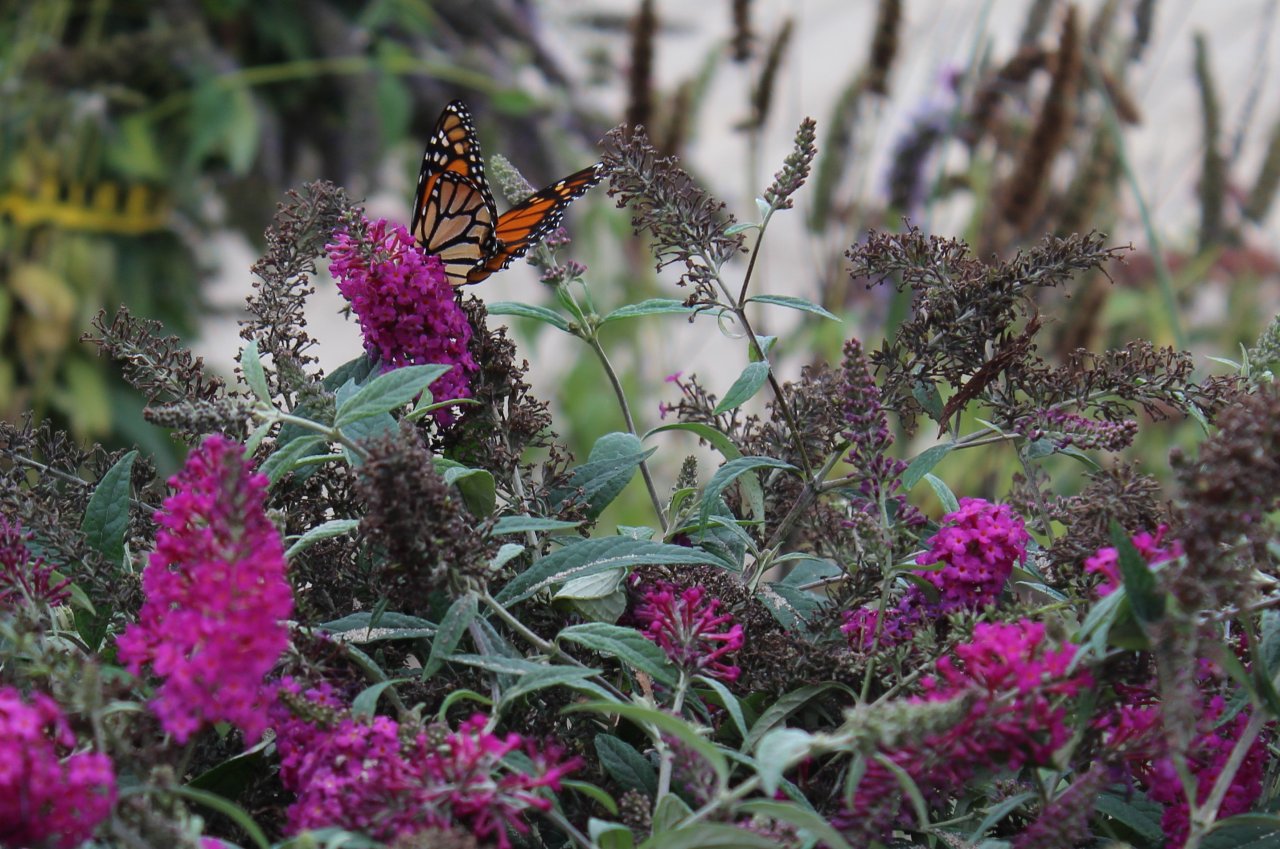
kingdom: Animalia
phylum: Arthropoda
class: Insecta
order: Lepidoptera
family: Nymphalidae
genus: Danaus
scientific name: Danaus plexippus
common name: Monarch
